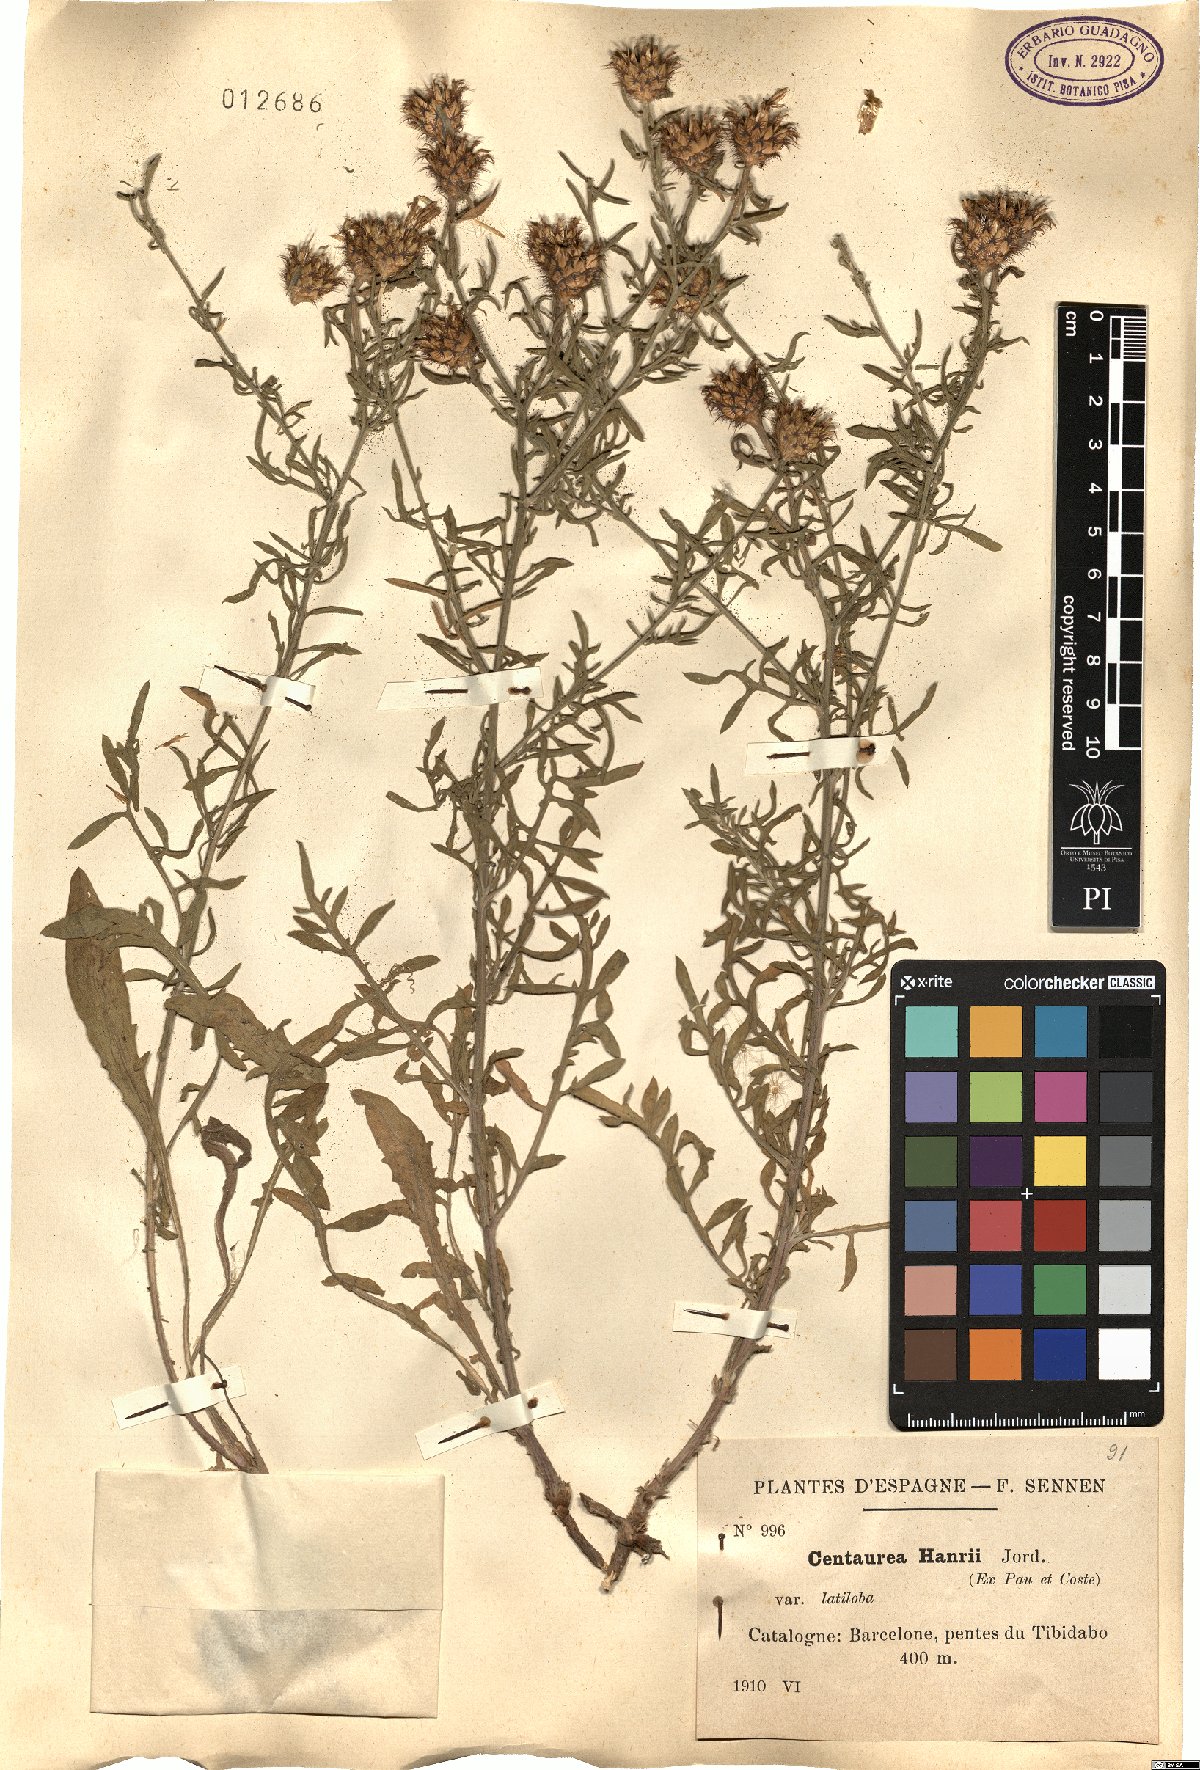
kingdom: Plantae
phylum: Tracheophyta
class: Magnoliopsida
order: Asterales
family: Asteraceae
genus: Centaurea
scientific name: Centaurea hanryi
